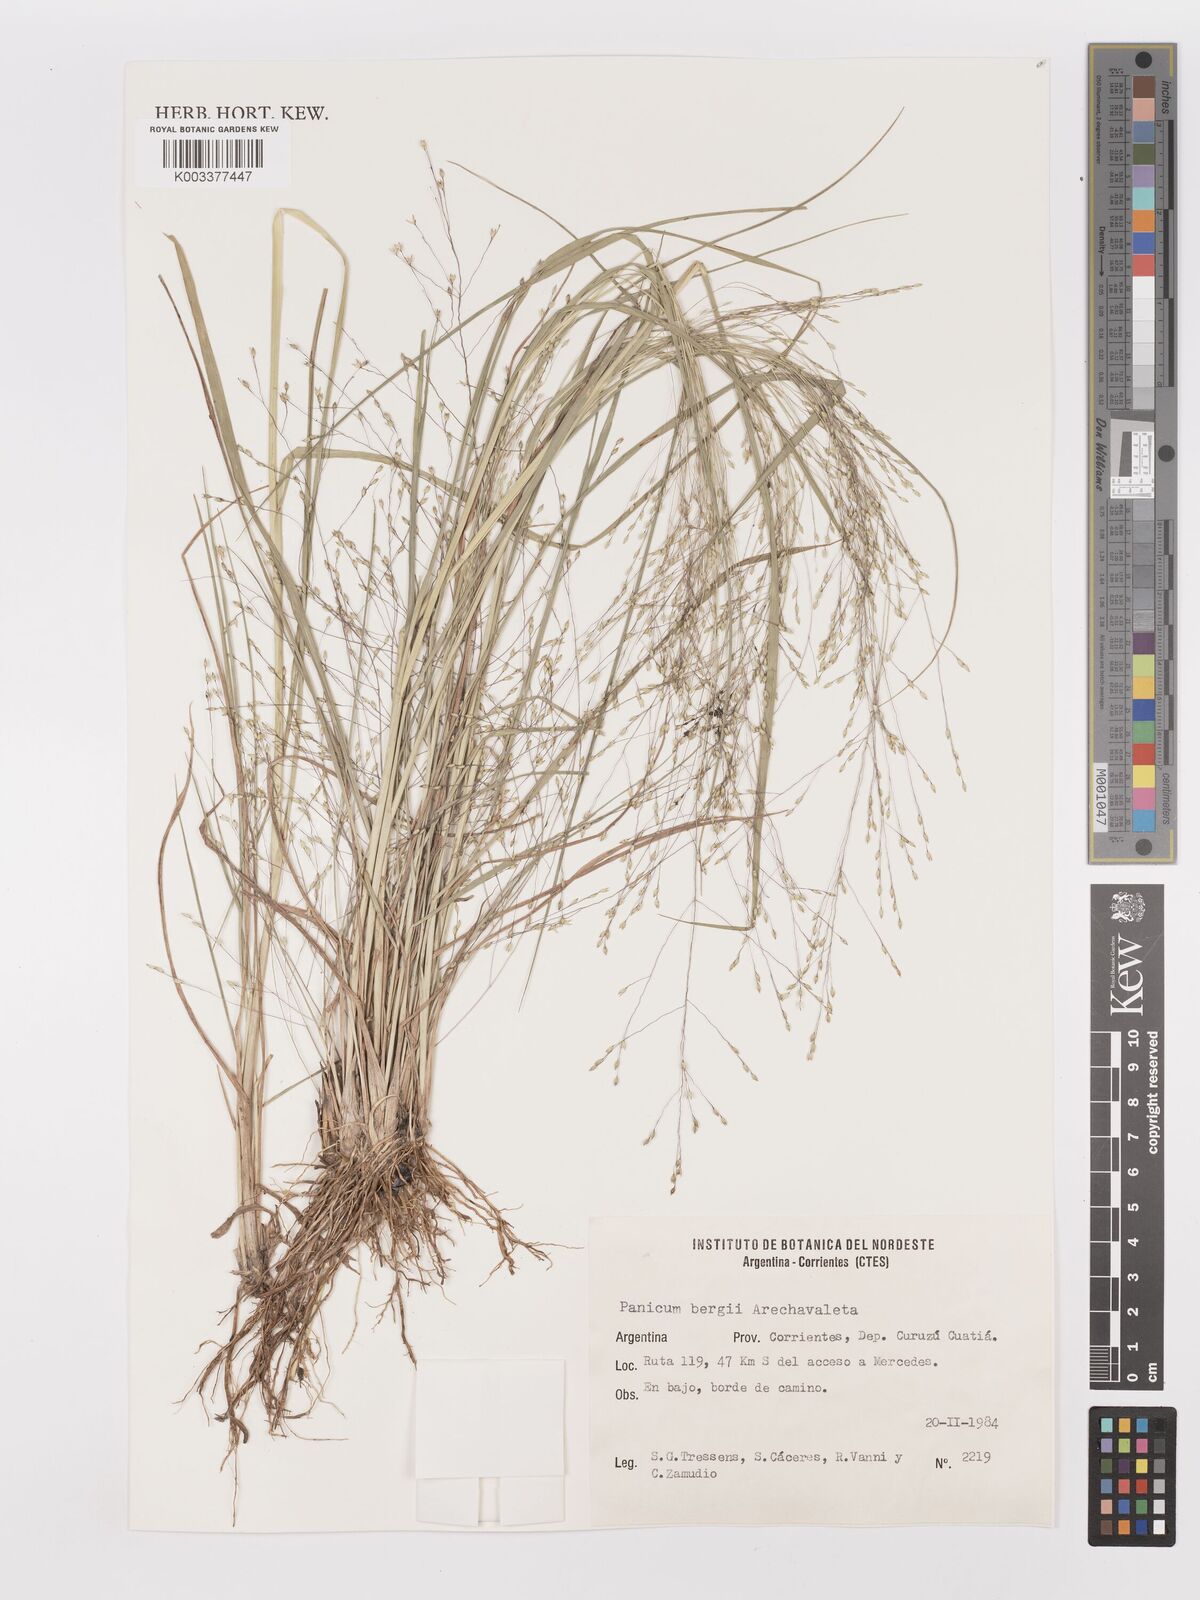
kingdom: Plantae
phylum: Tracheophyta
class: Liliopsida
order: Poales
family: Poaceae
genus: Panicum
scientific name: Panicum bergii
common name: Berg's panicgrass
